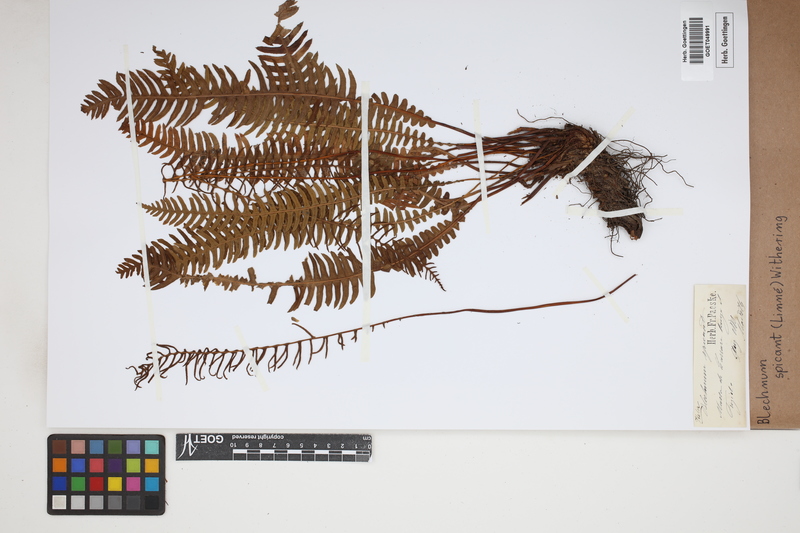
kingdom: Plantae
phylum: Tracheophyta
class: Polypodiopsida
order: Polypodiales
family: Blechnaceae
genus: Struthiopteris
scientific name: Struthiopteris spicant
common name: Deer fern
